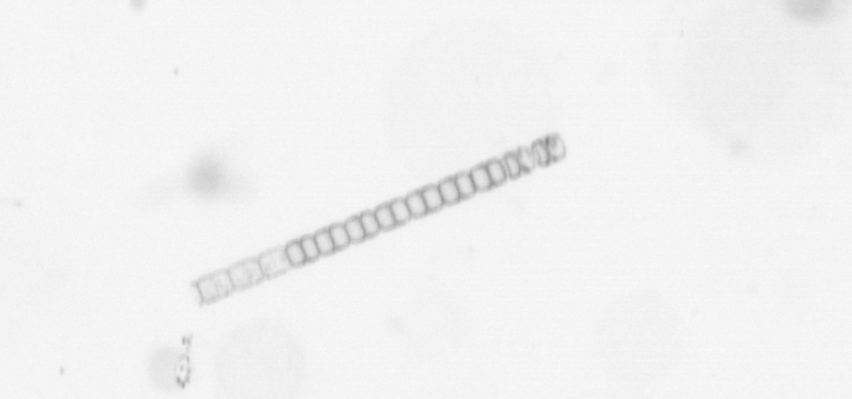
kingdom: Chromista
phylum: Ochrophyta
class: Bacillariophyceae
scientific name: Bacillariophyceae
